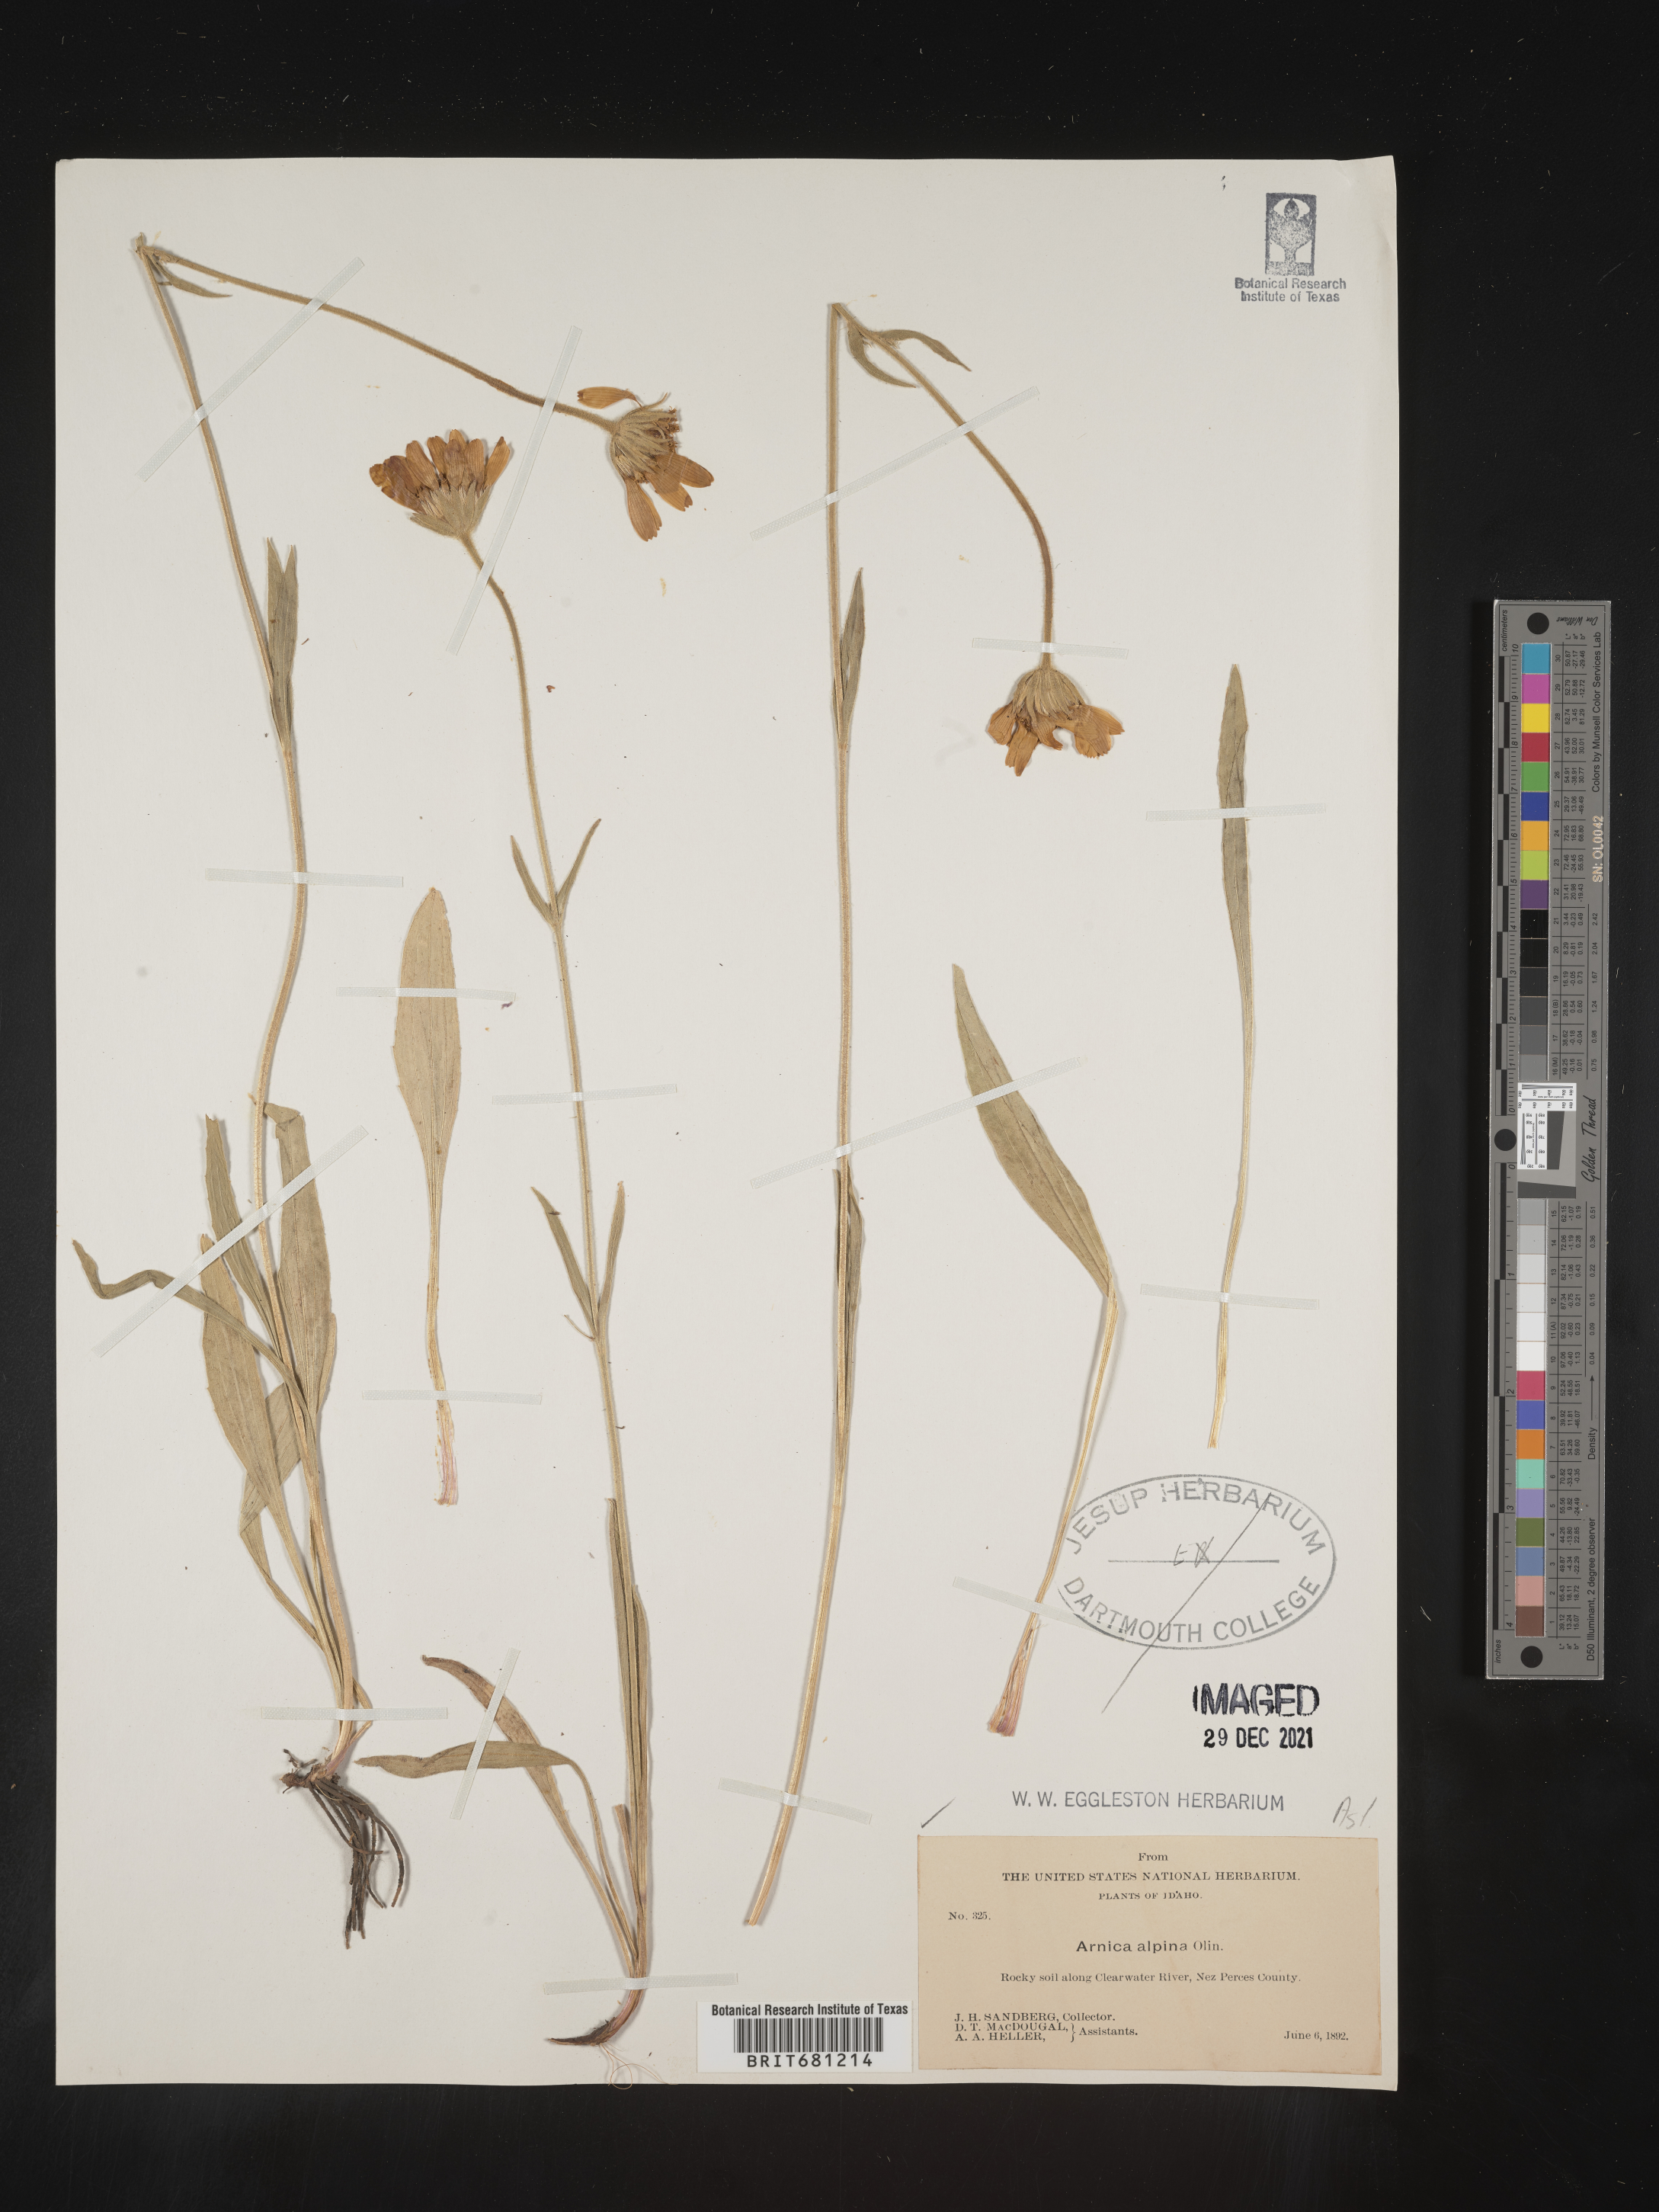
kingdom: Plantae
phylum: Tracheophyta
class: Magnoliopsida
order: Asterales
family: Asteraceae
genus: Arnica
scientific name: Arnica angustifolia
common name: Arctic arnica
